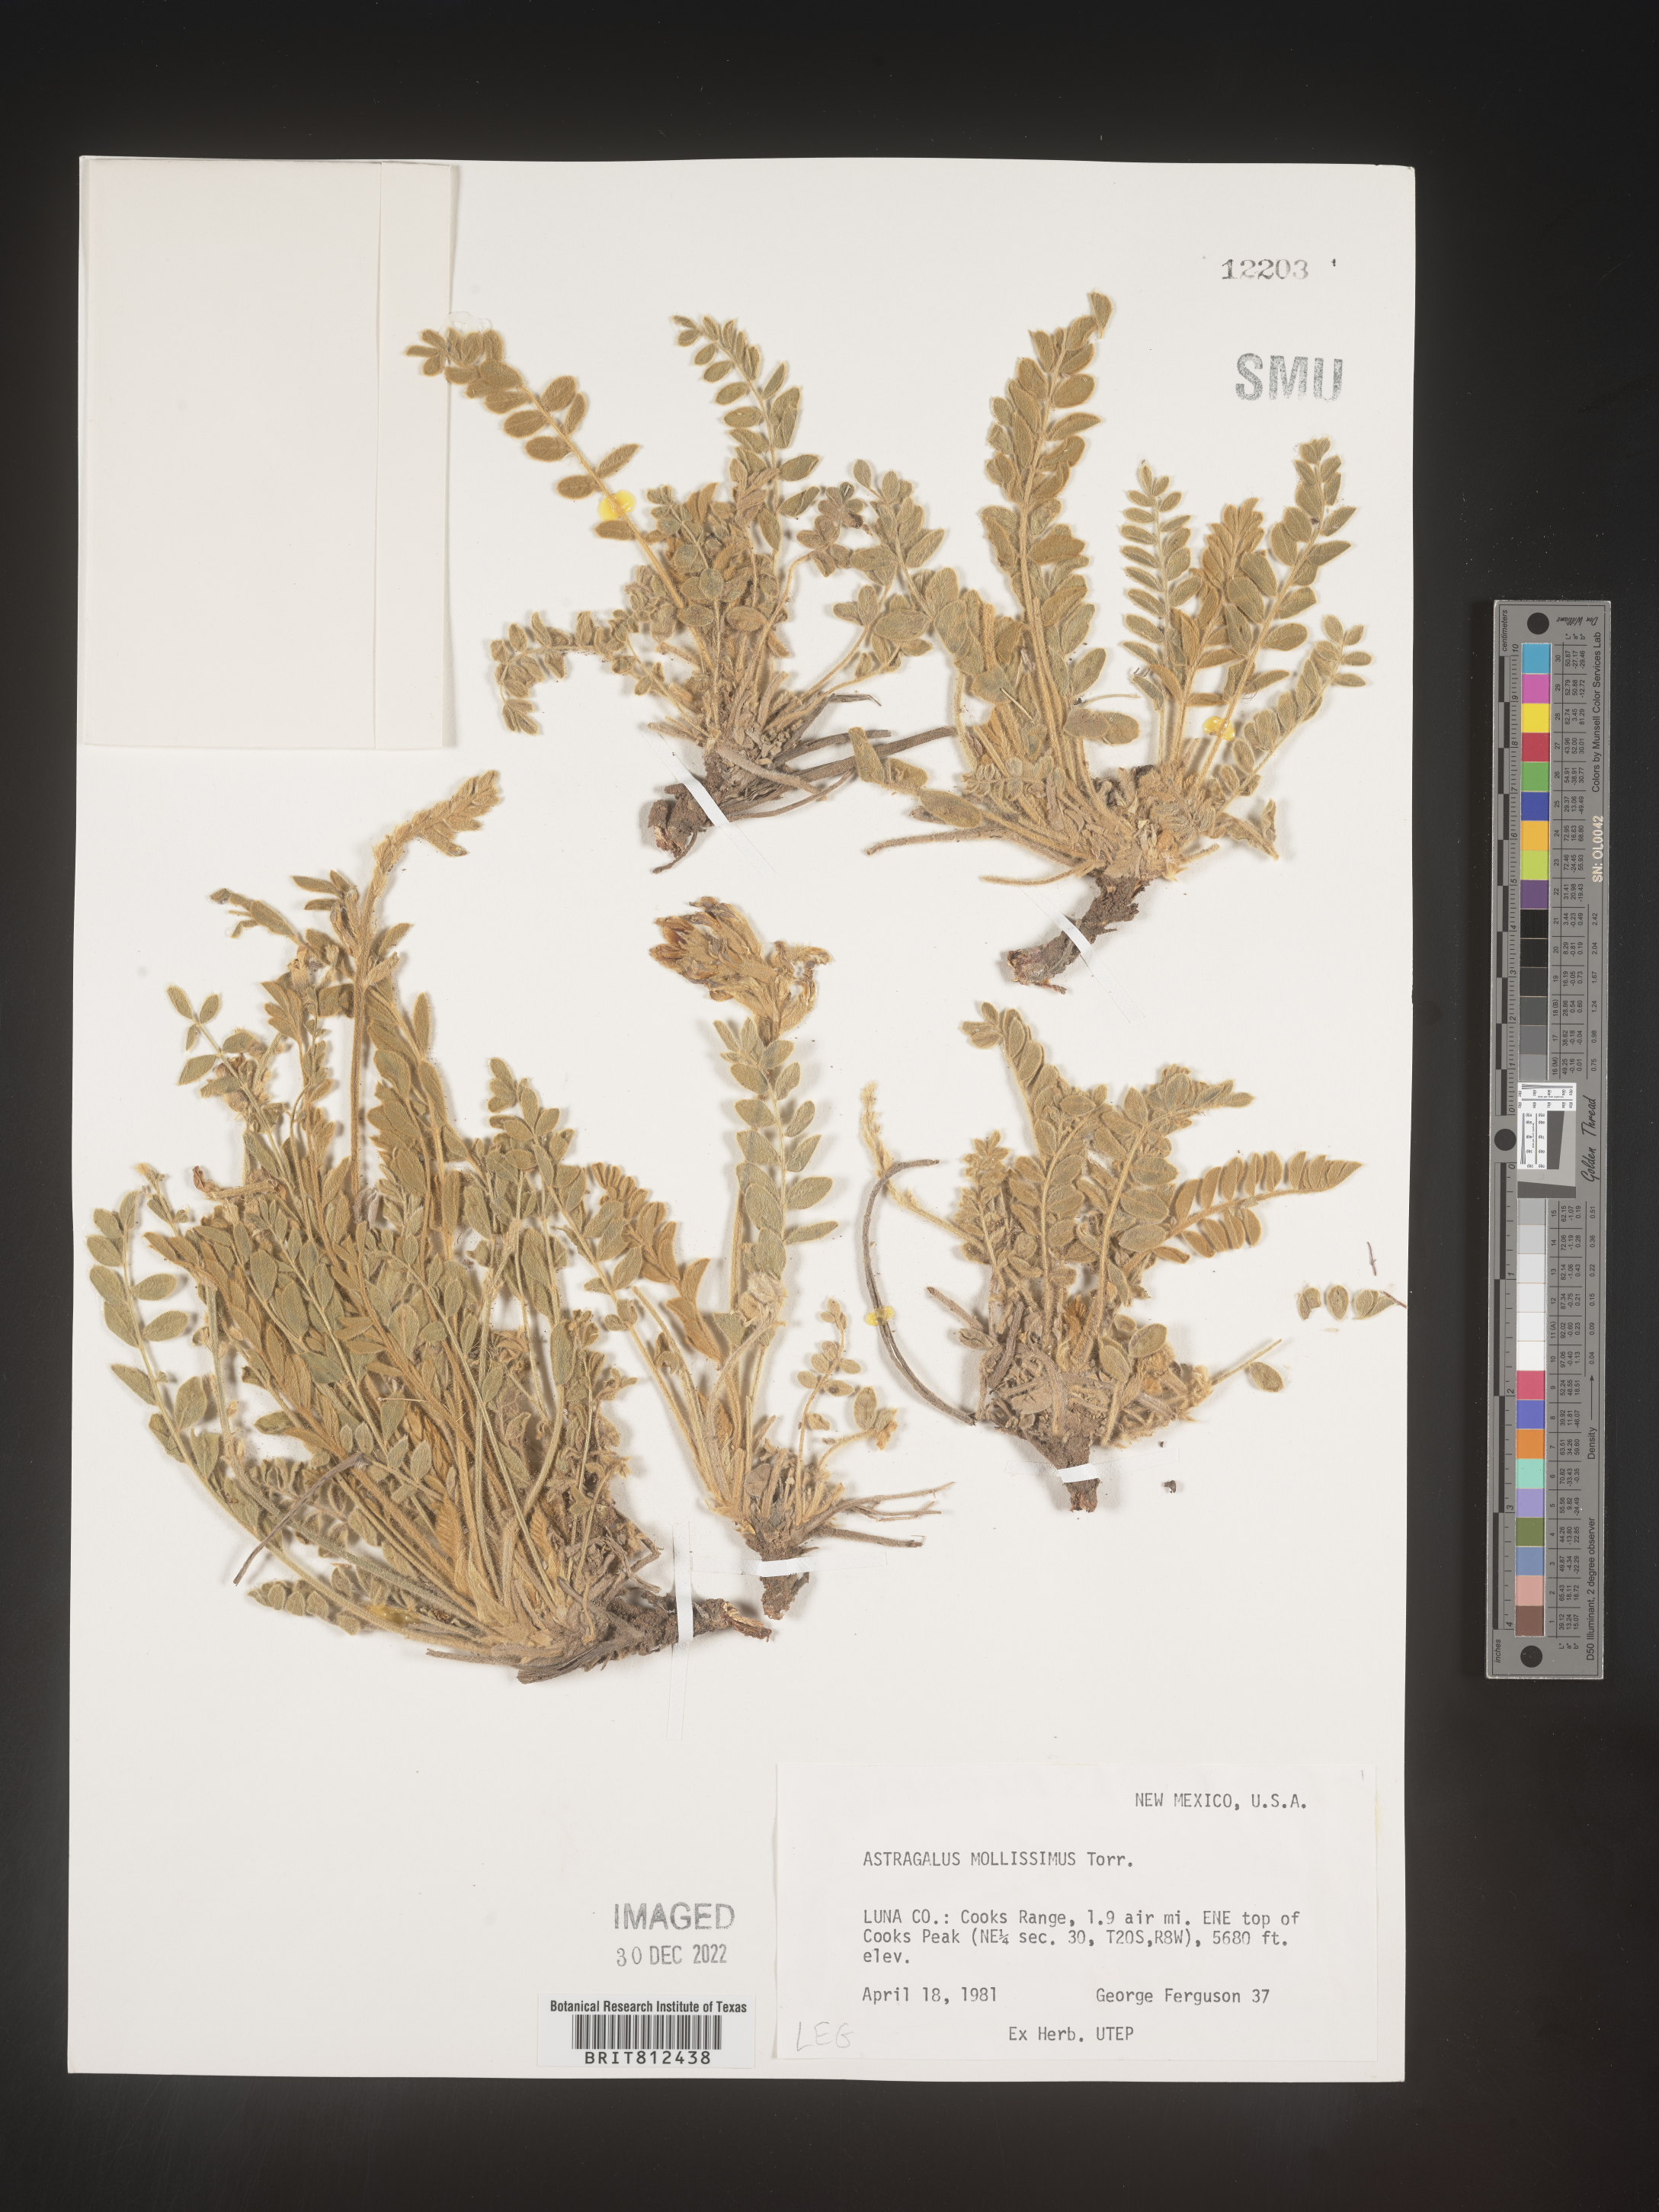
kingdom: Plantae
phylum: Tracheophyta
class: Magnoliopsida
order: Fabales
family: Fabaceae
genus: Astragalus
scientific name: Astragalus
